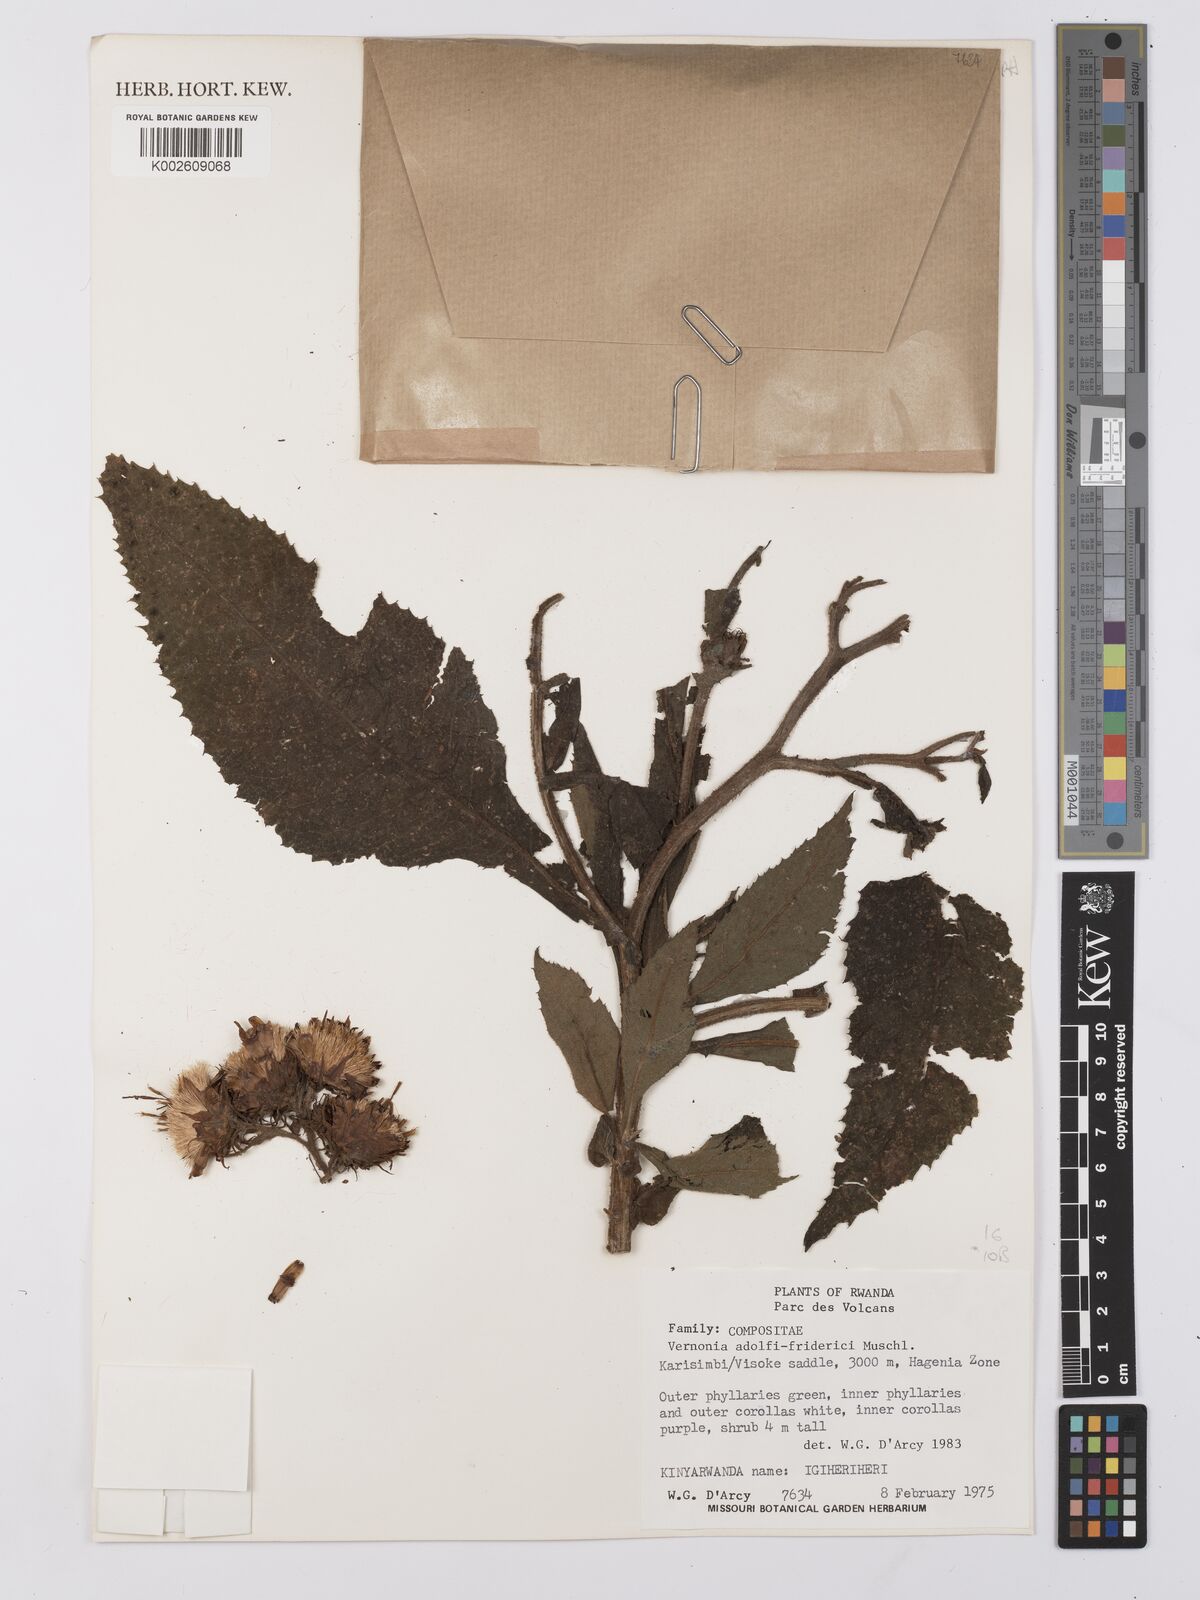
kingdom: Plantae
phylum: Tracheophyta
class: Magnoliopsida
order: Asterales
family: Asteraceae
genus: Baccharoides
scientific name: Baccharoides calvoana
